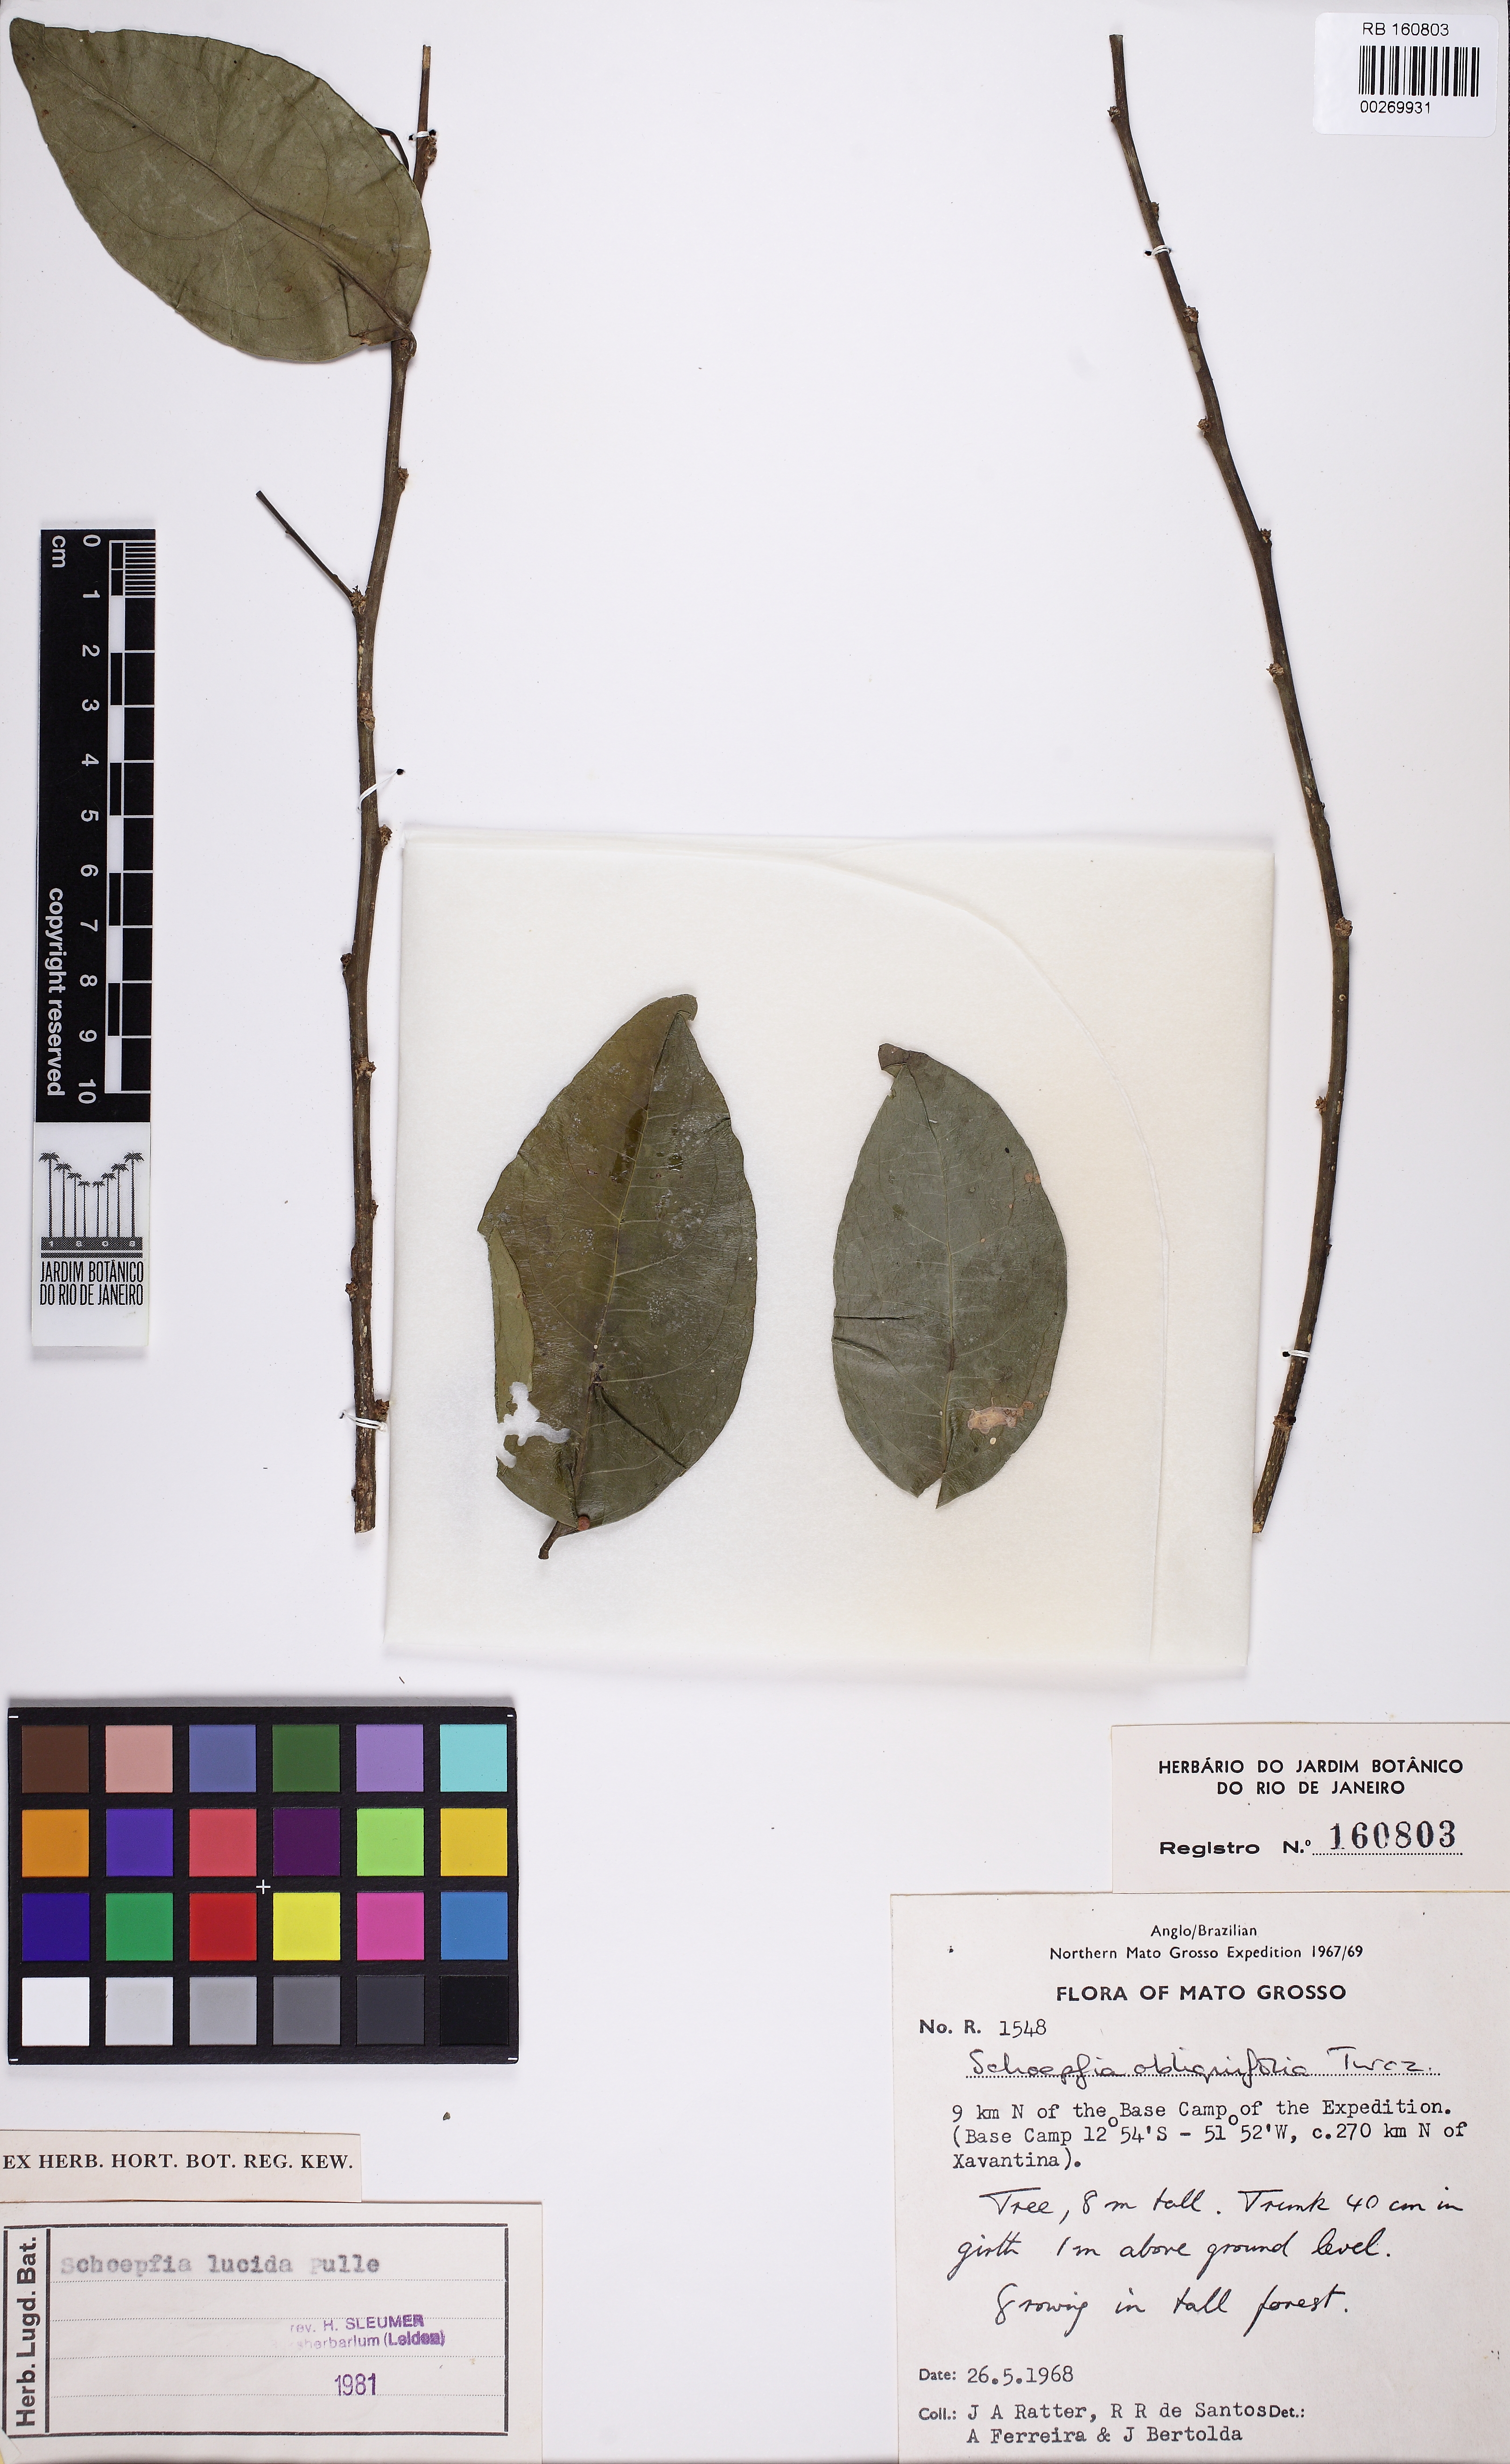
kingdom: Plantae
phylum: Tracheophyta
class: Magnoliopsida
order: Santalales
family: Schoepfiaceae
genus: Schoepfia
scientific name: Schoepfia lucida
